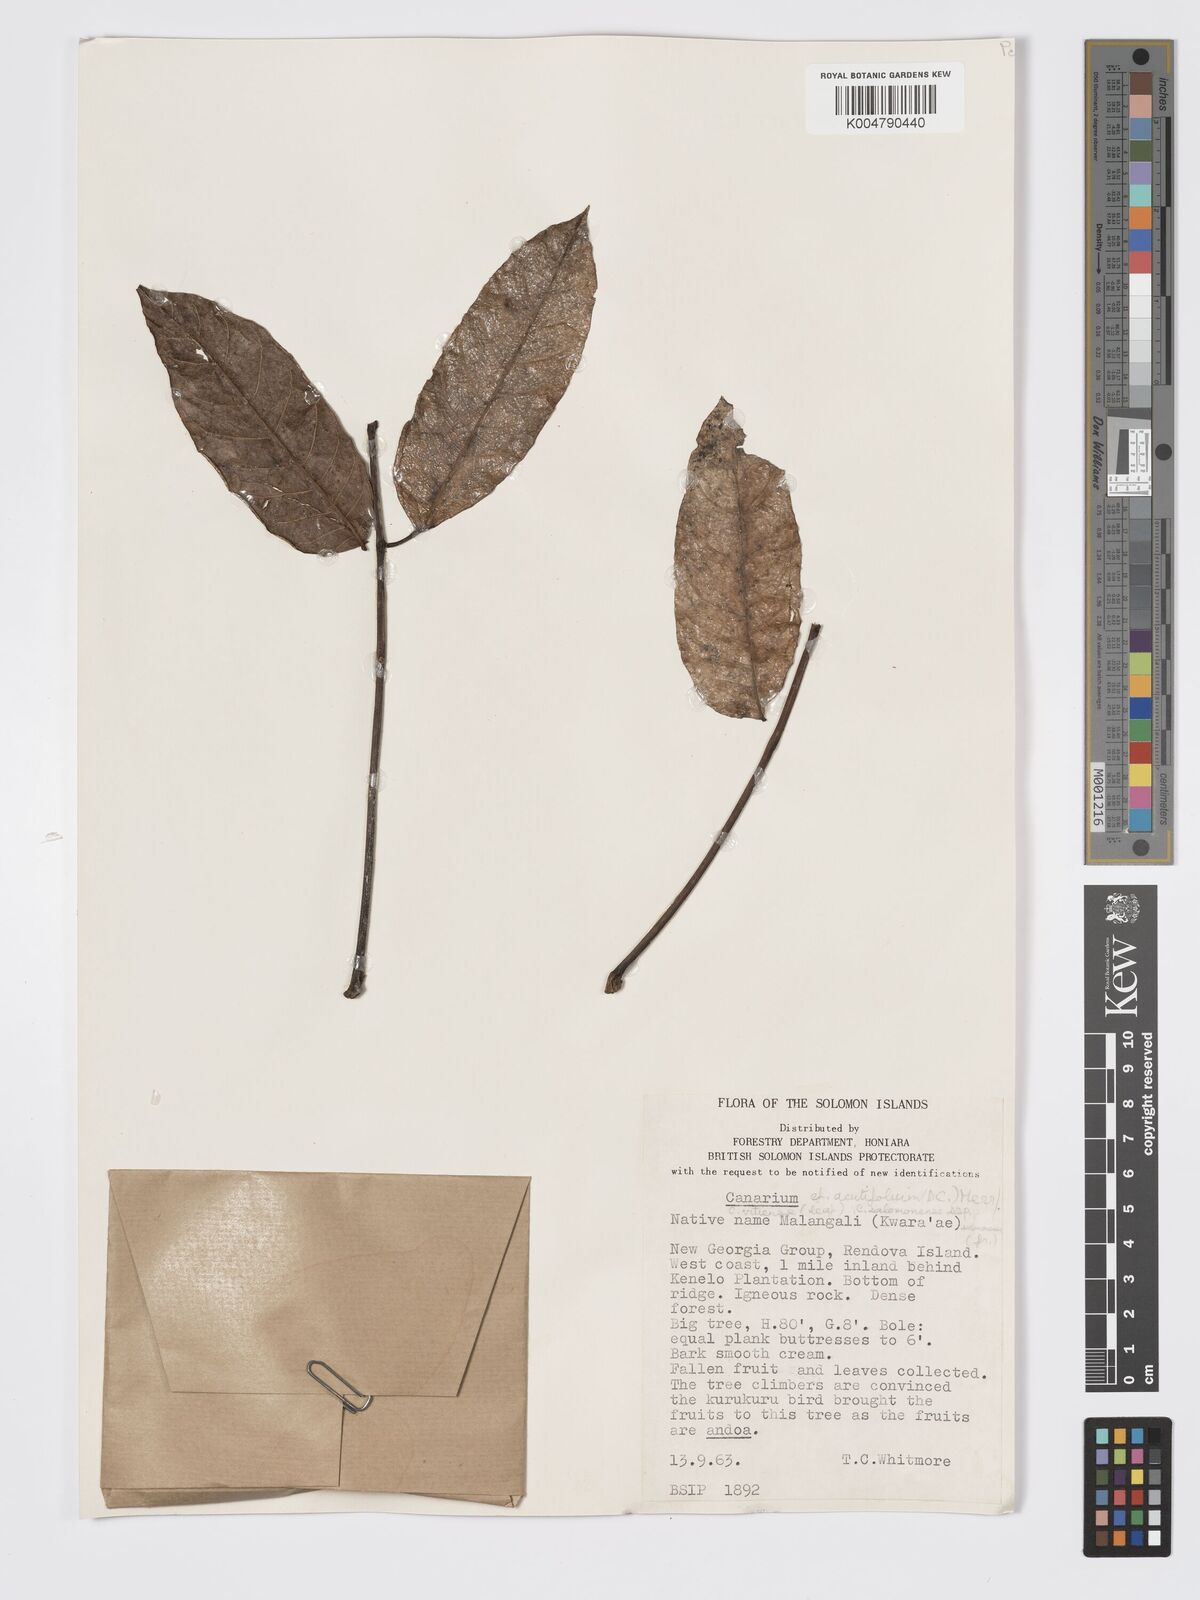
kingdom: Plantae
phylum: Tracheophyta
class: Magnoliopsida
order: Sapindales
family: Burseraceae
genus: Canarium
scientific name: Canarium acutifolium
